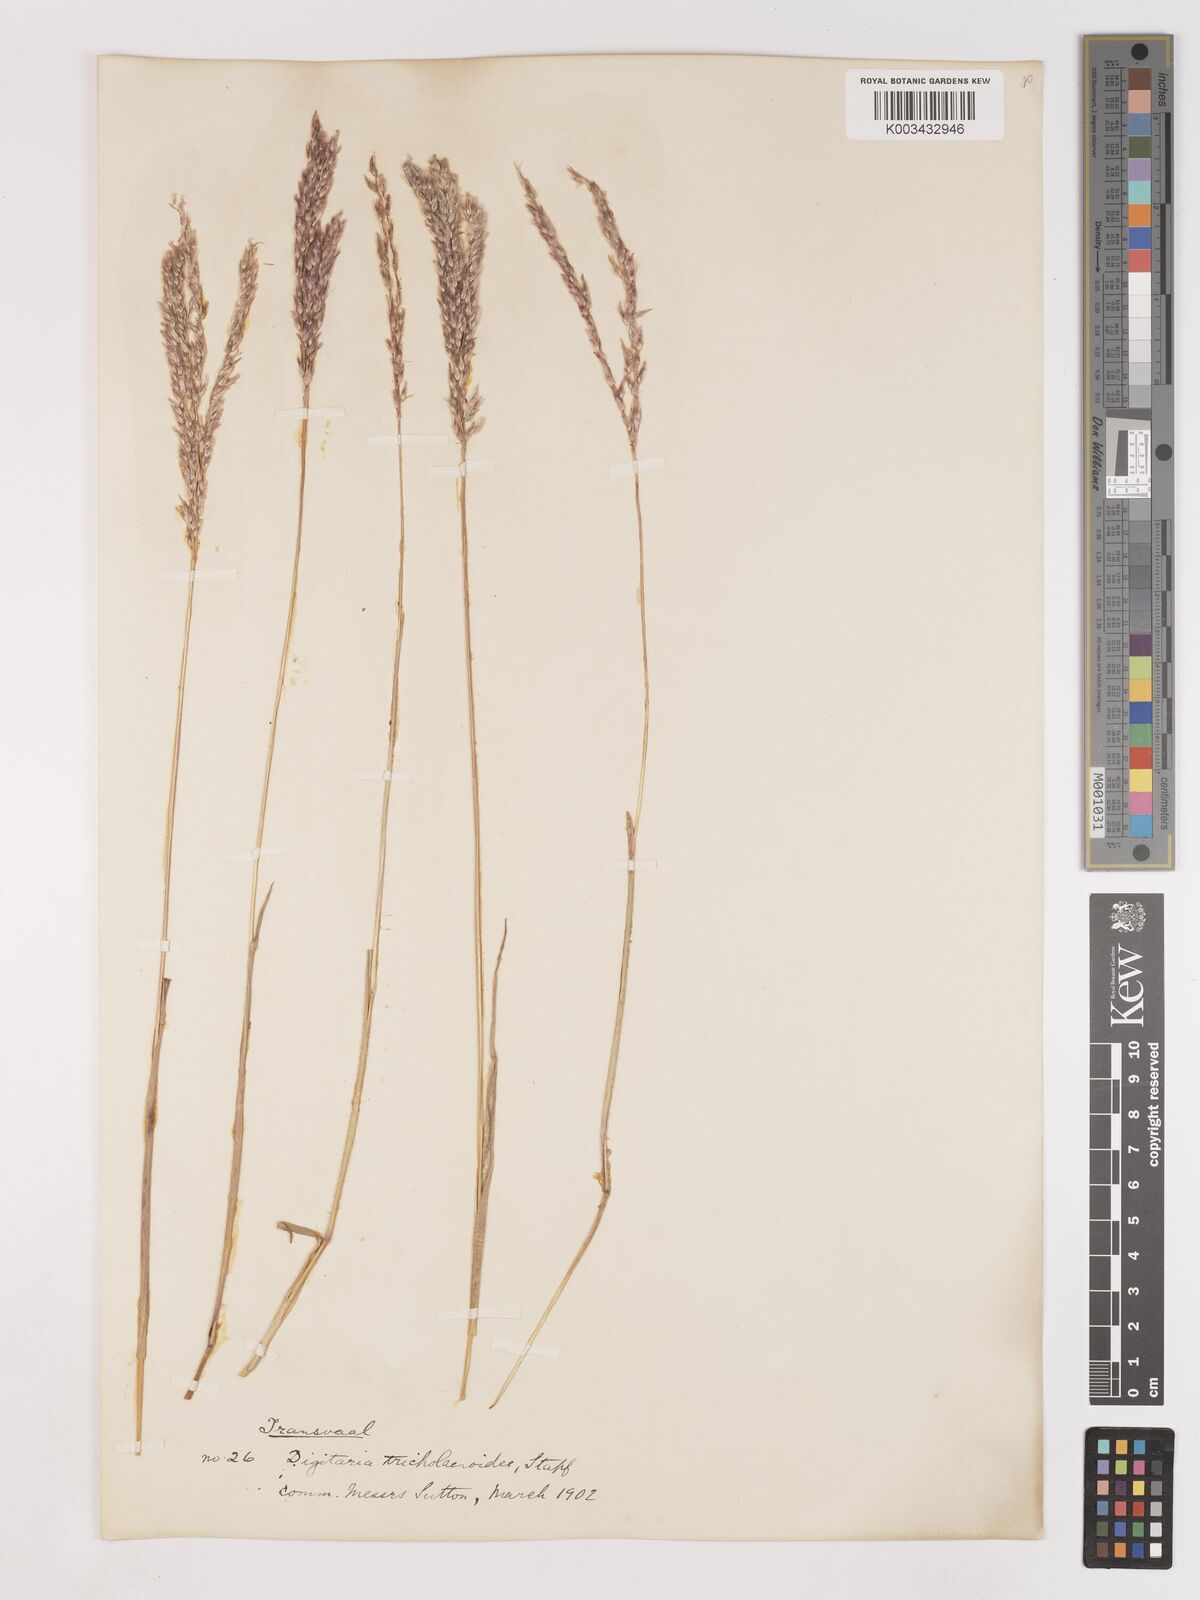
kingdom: Plantae
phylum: Tracheophyta
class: Liliopsida
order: Poales
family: Poaceae
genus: Digitaria
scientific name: Digitaria tricholaenoides
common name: Purple finger grass
